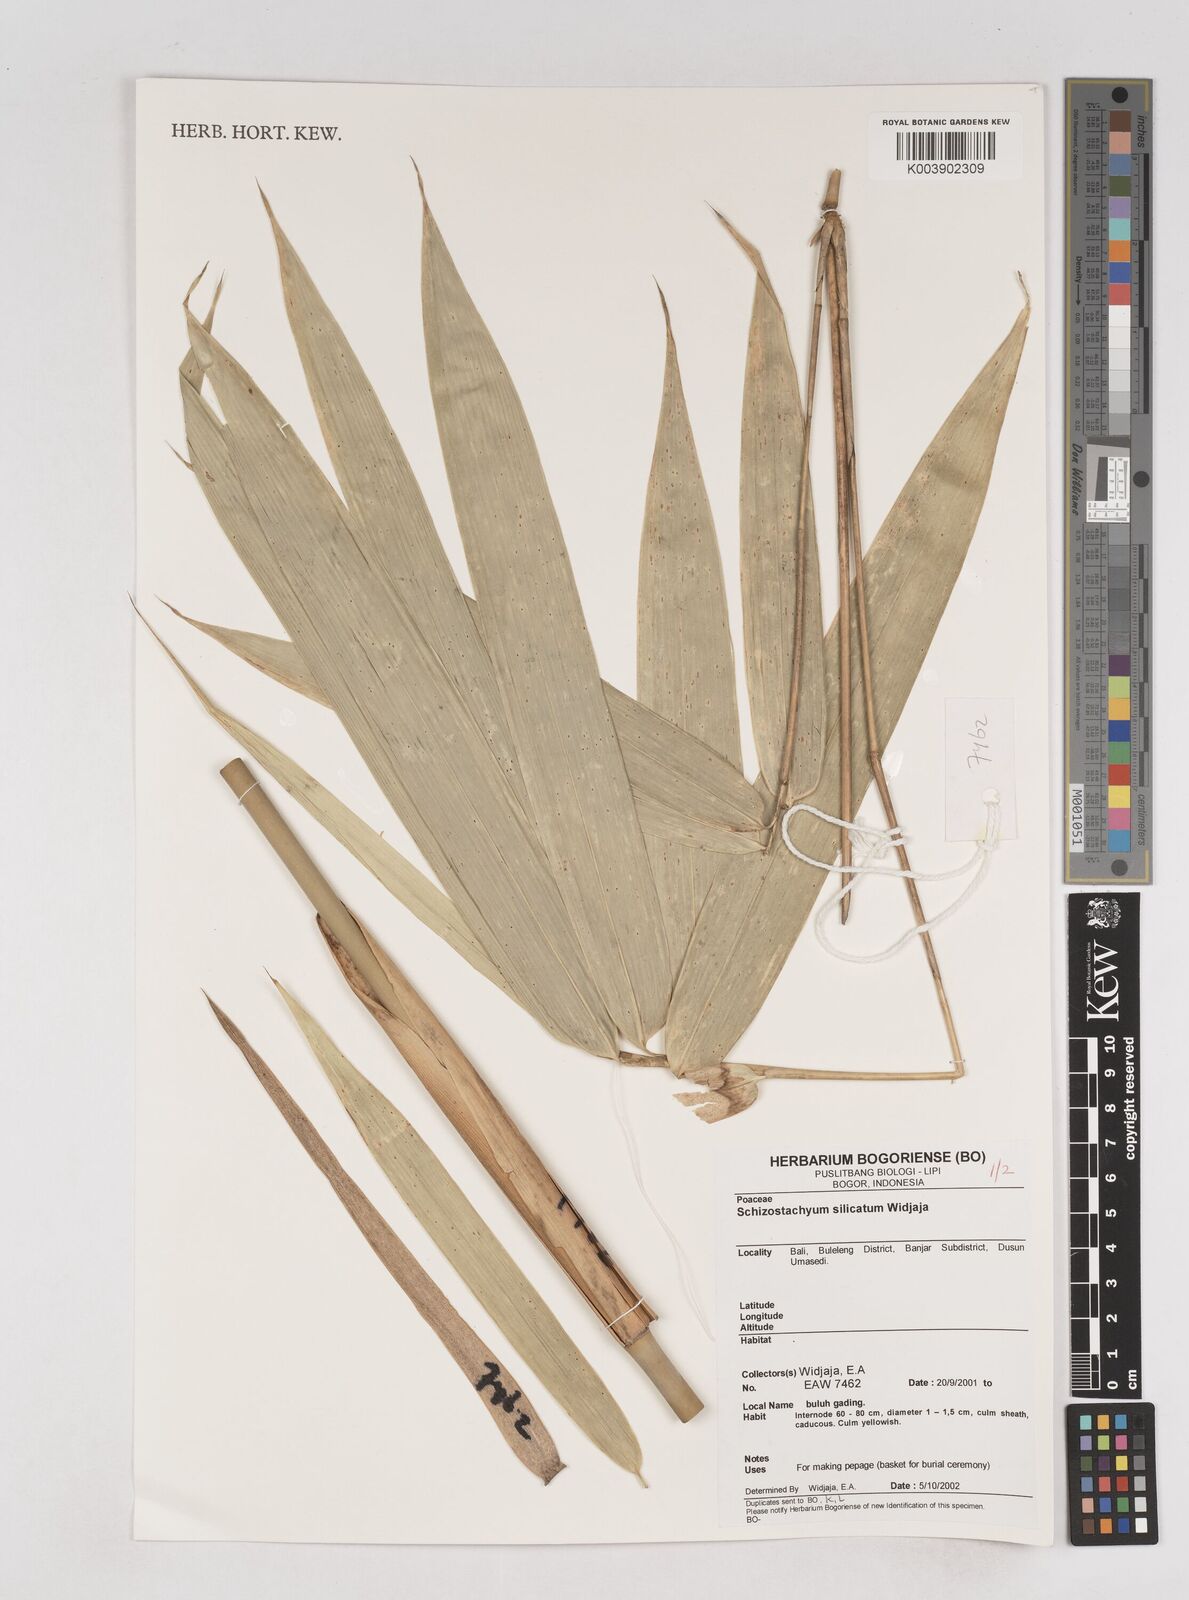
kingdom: Plantae
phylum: Tracheophyta
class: Liliopsida
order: Poales
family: Poaceae
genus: Schizostachyum
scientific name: Schizostachyum silicatum
